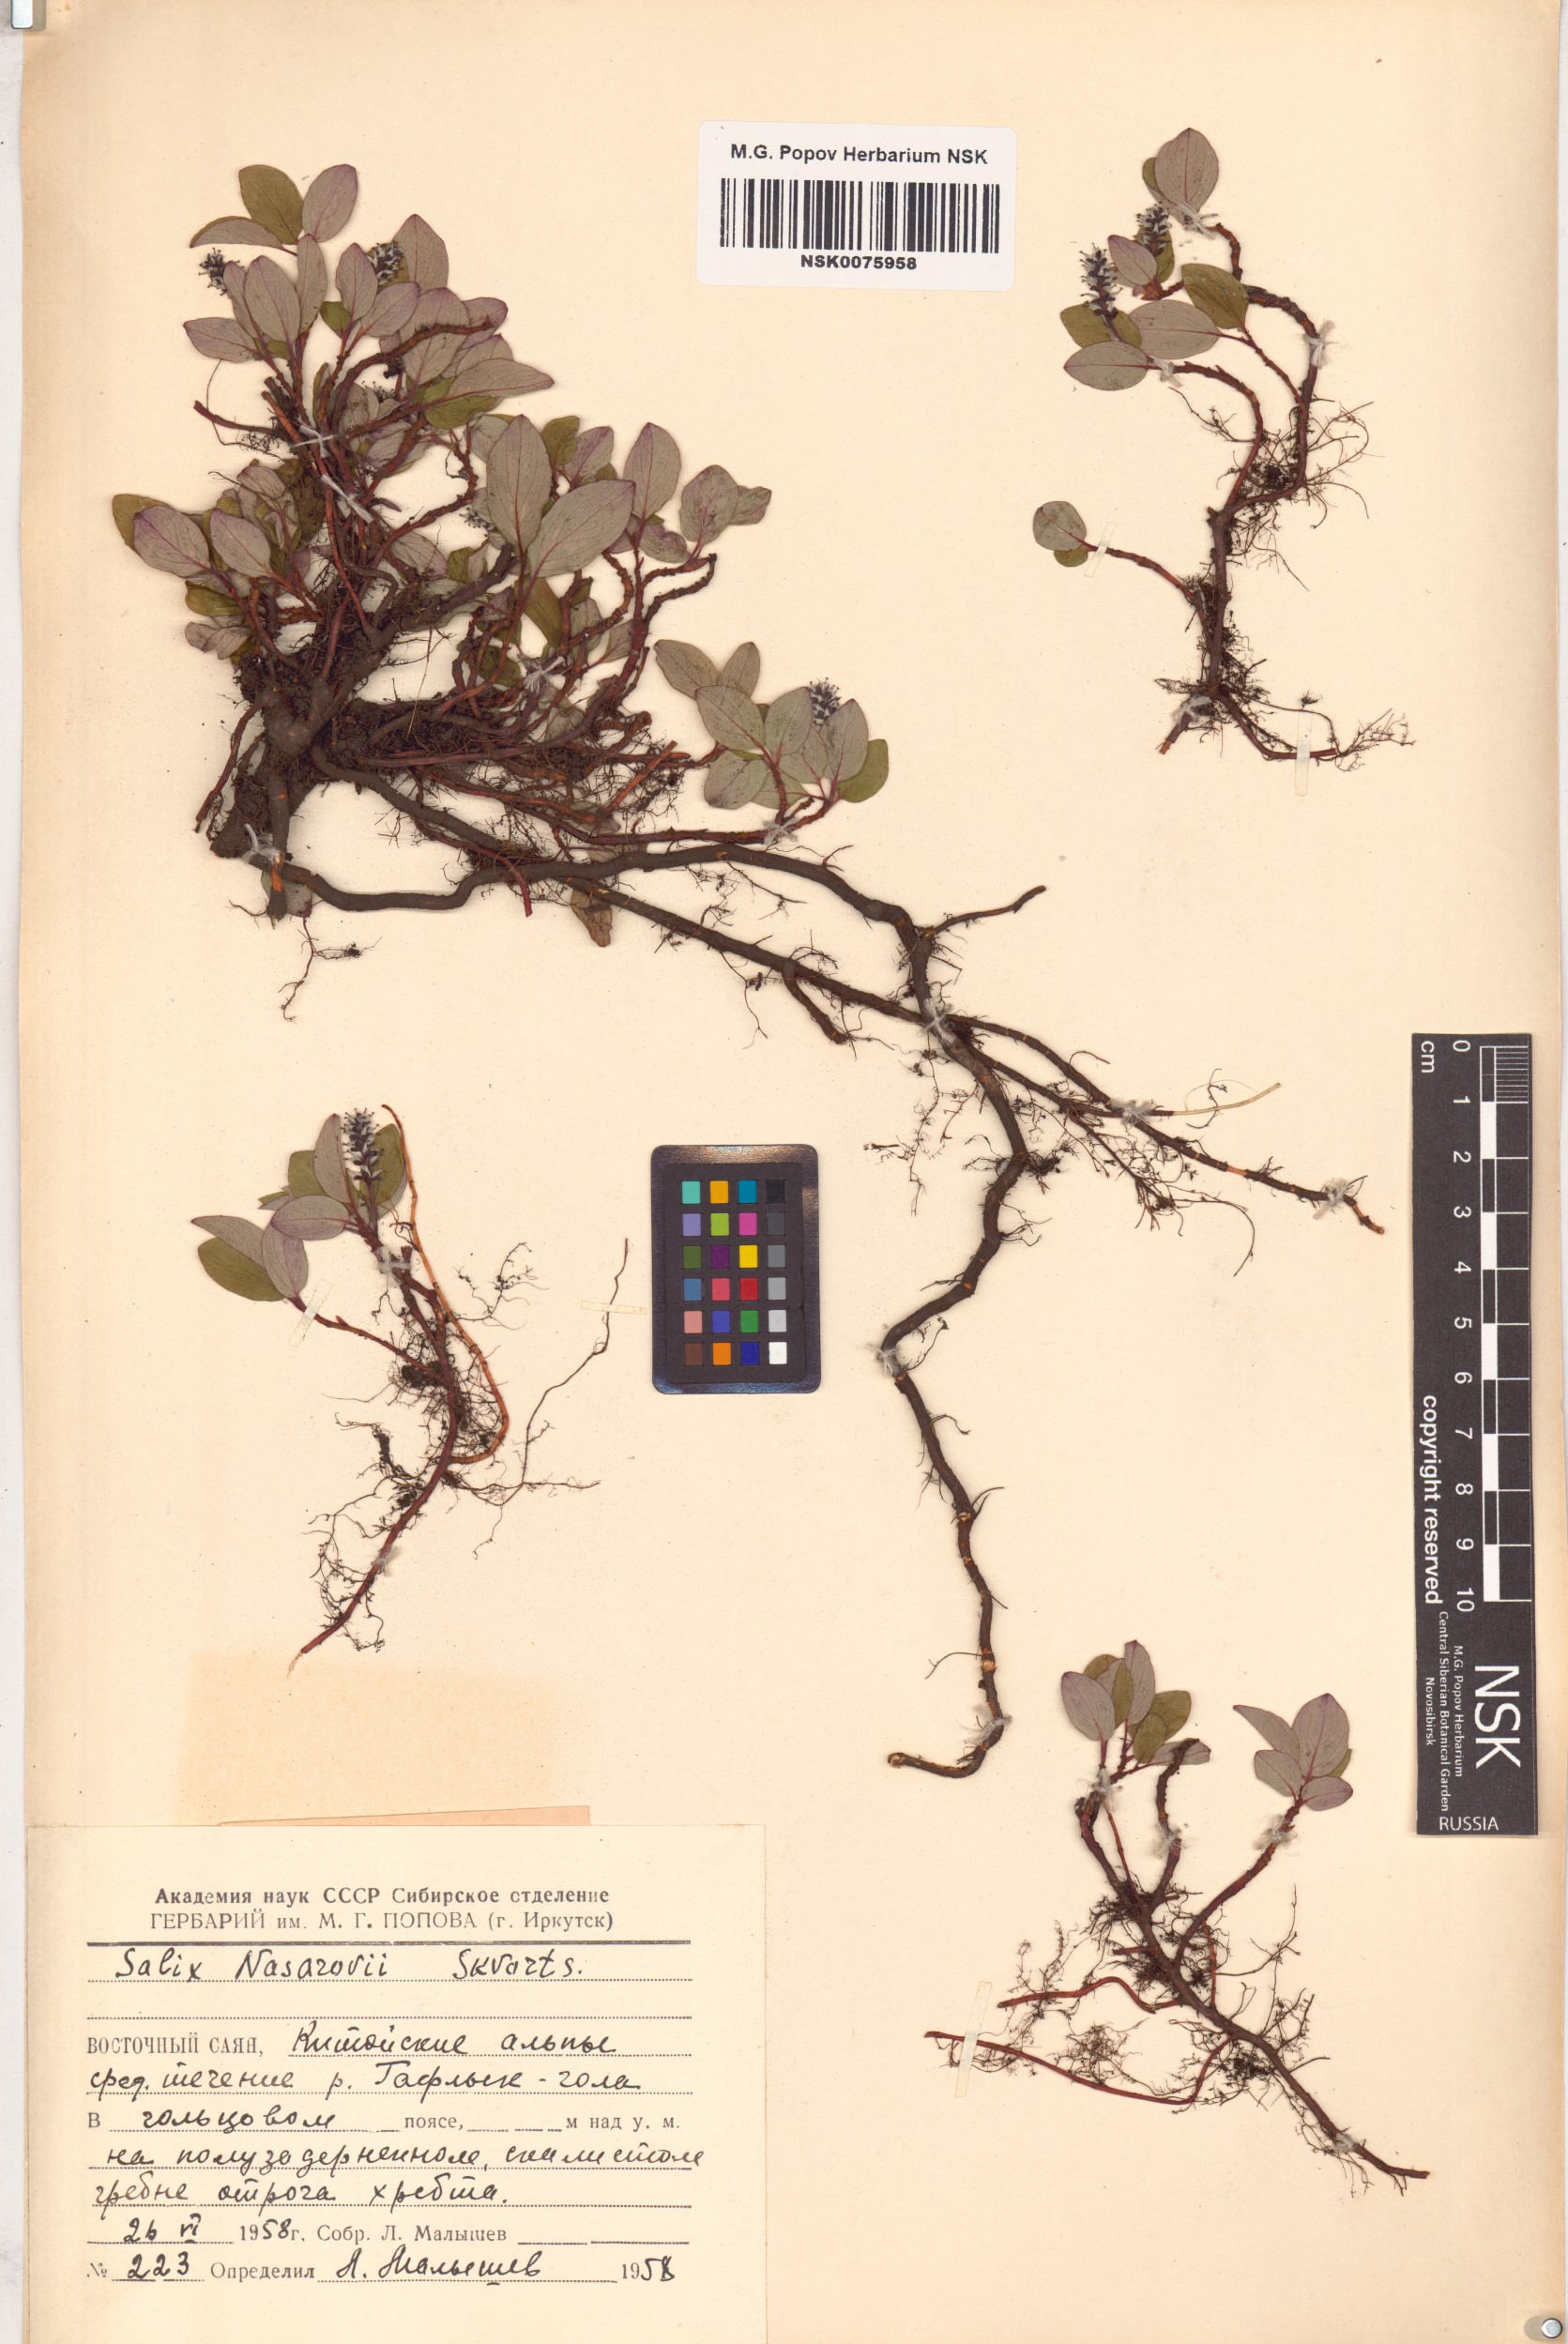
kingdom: Plantae
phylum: Tracheophyta
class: Magnoliopsida
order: Malpighiales
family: Salicaceae
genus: Salix
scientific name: Salix nasarovii
